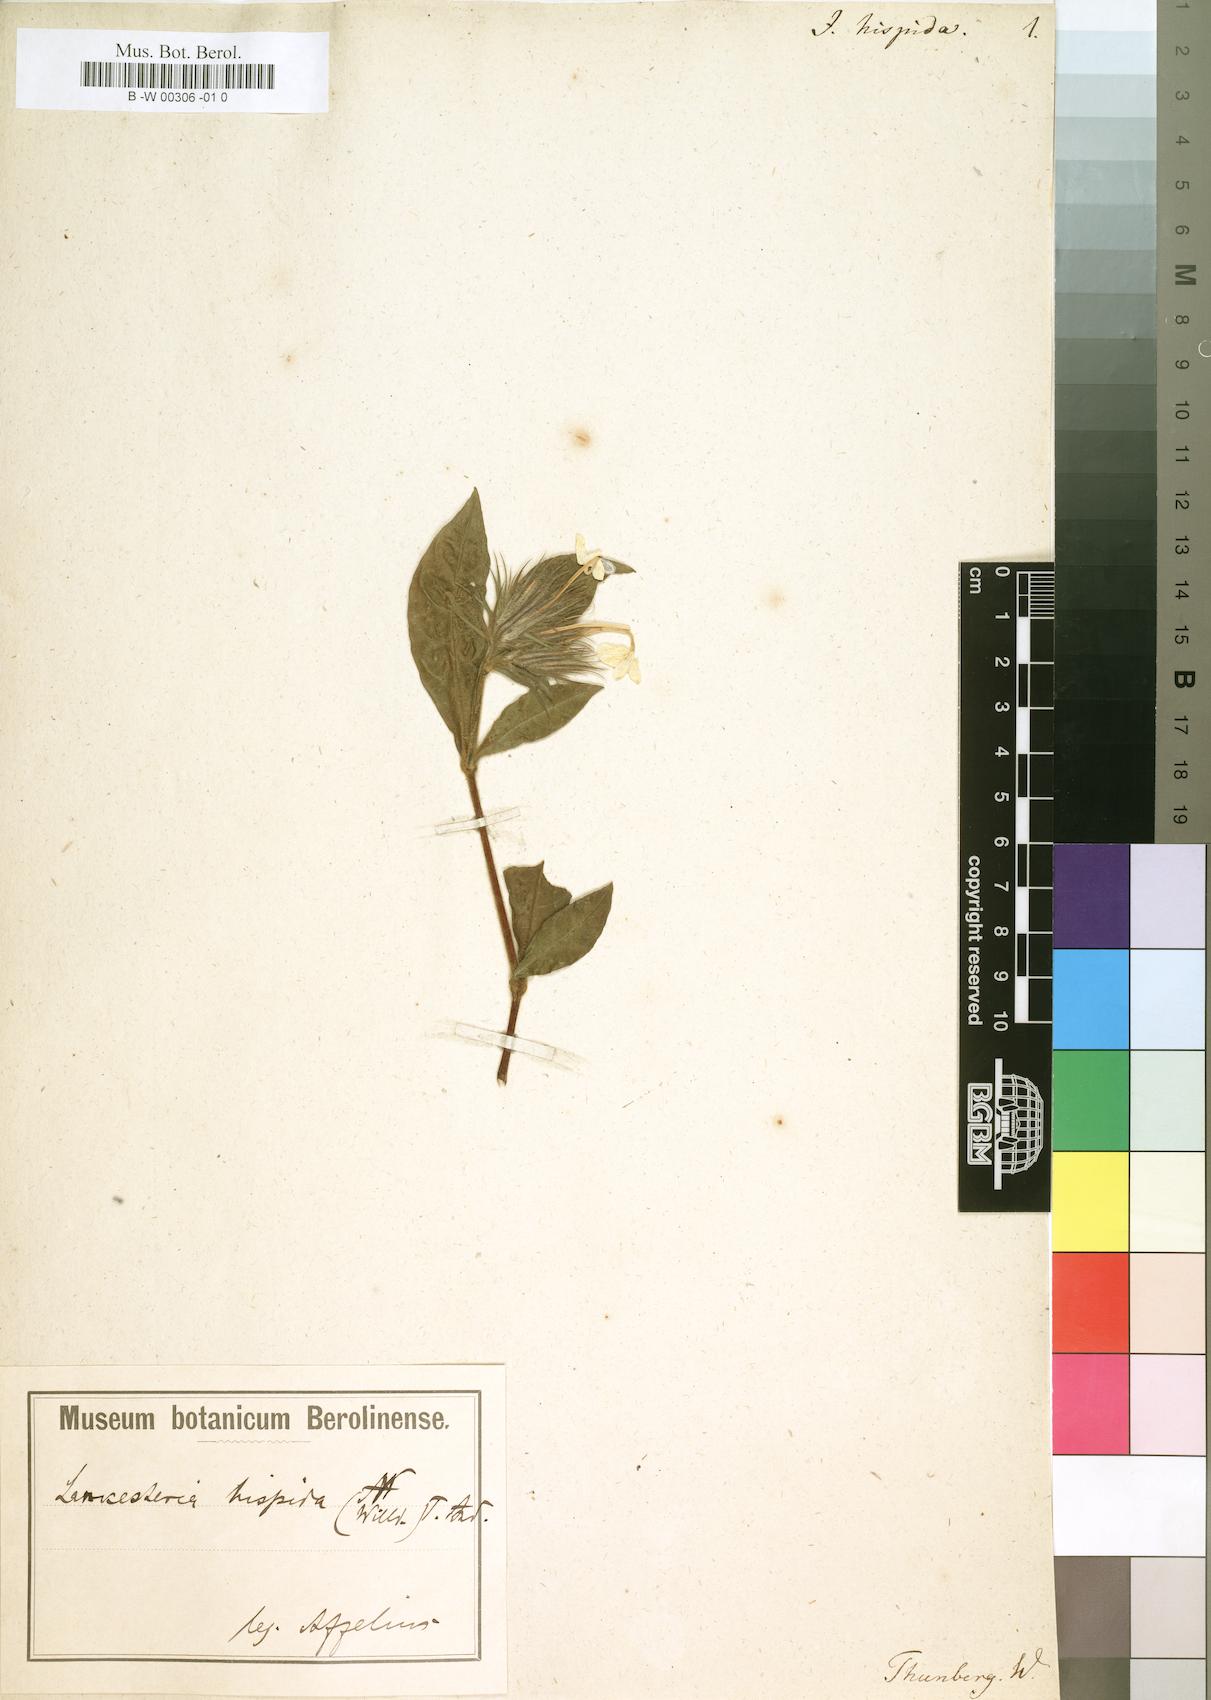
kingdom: Plantae
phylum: Tracheophyta
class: Magnoliopsida
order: Lamiales
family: Acanthaceae
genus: Lankesteria
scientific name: Lankesteria hispida
